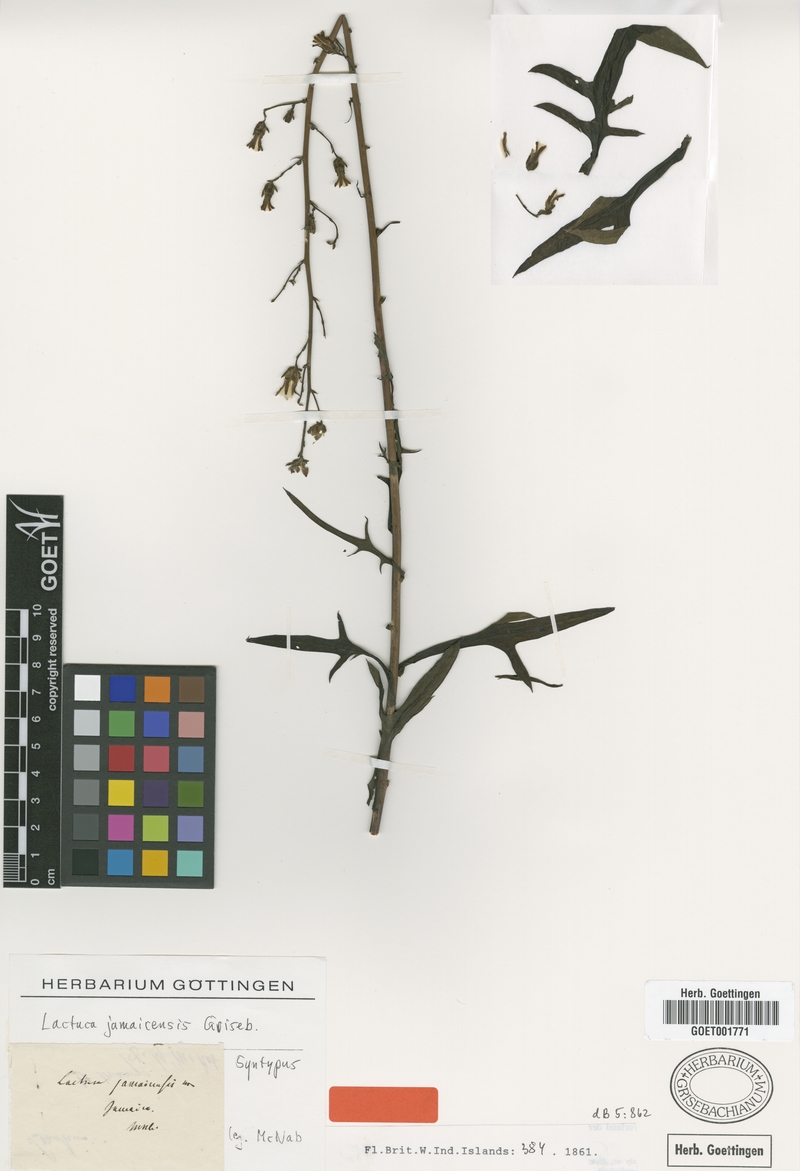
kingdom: Plantae
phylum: Tracheophyta
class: Magnoliopsida
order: Asterales
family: Asteraceae
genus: Lactuca
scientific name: Lactuca indica
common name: Wild lettuce
